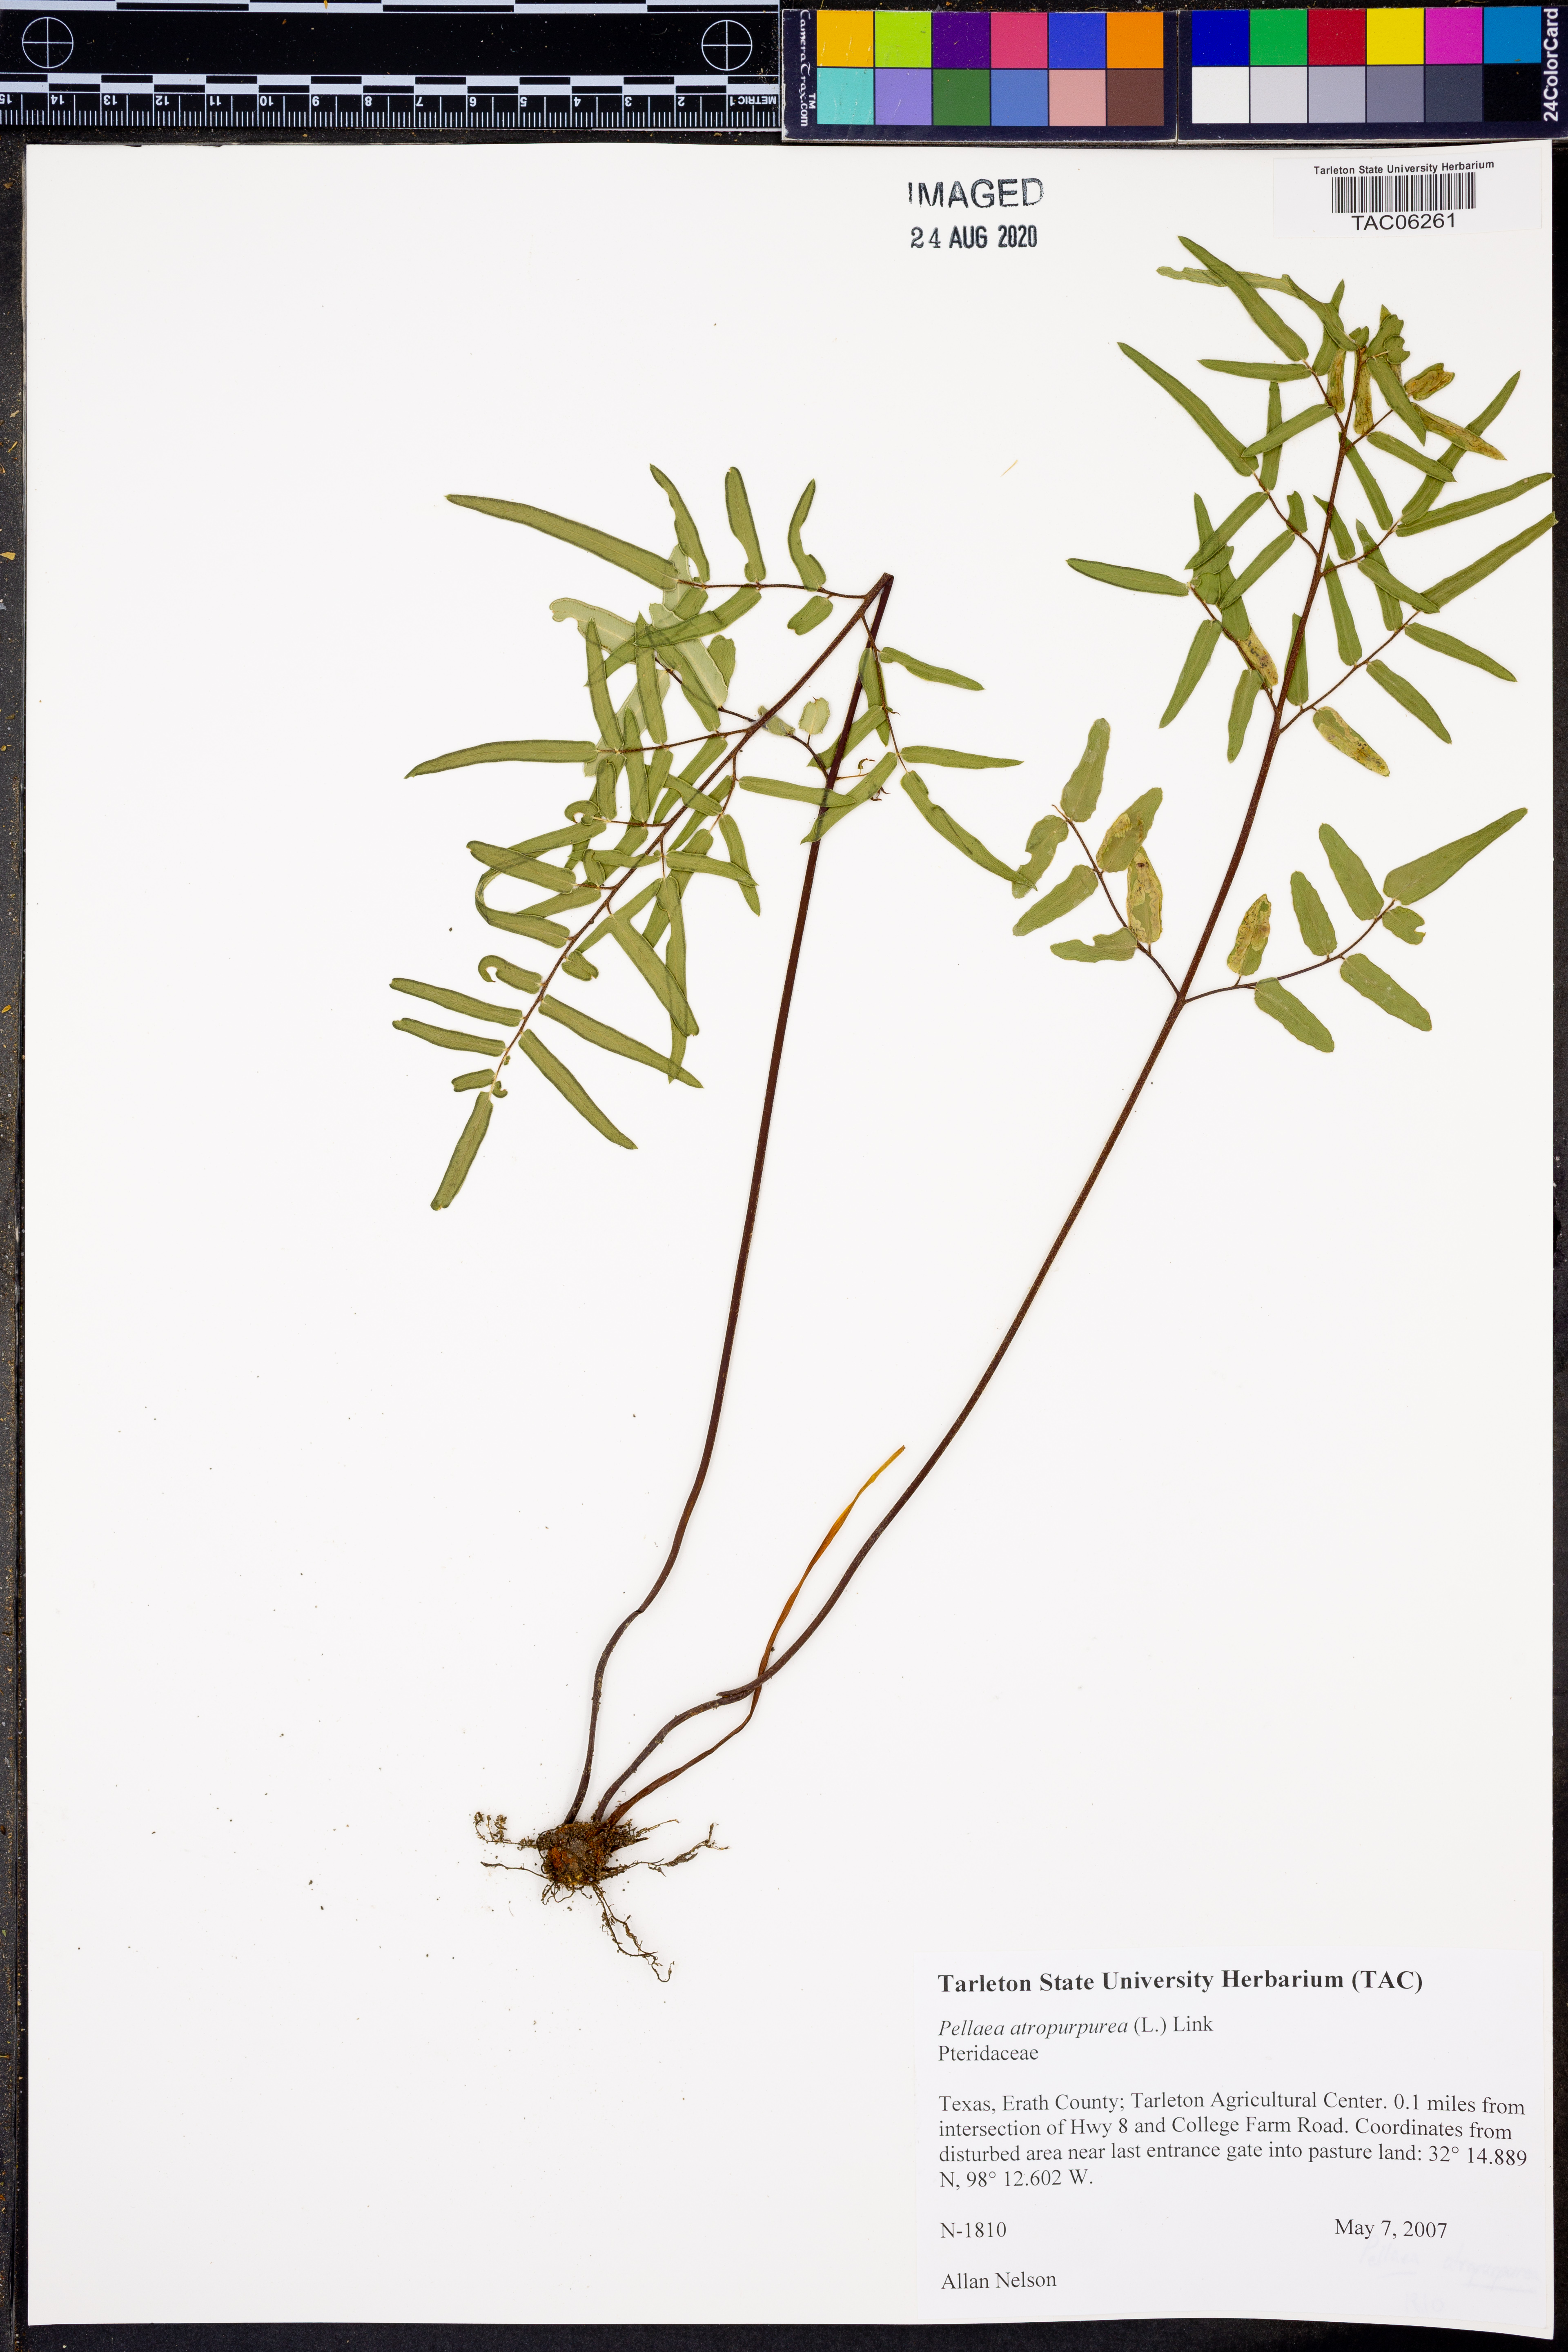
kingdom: Plantae
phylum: Tracheophyta
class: Polypodiopsida
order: Polypodiales
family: Pteridaceae
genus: Pellaea
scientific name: Pellaea atropurpurea
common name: Hairy cliffbrake
